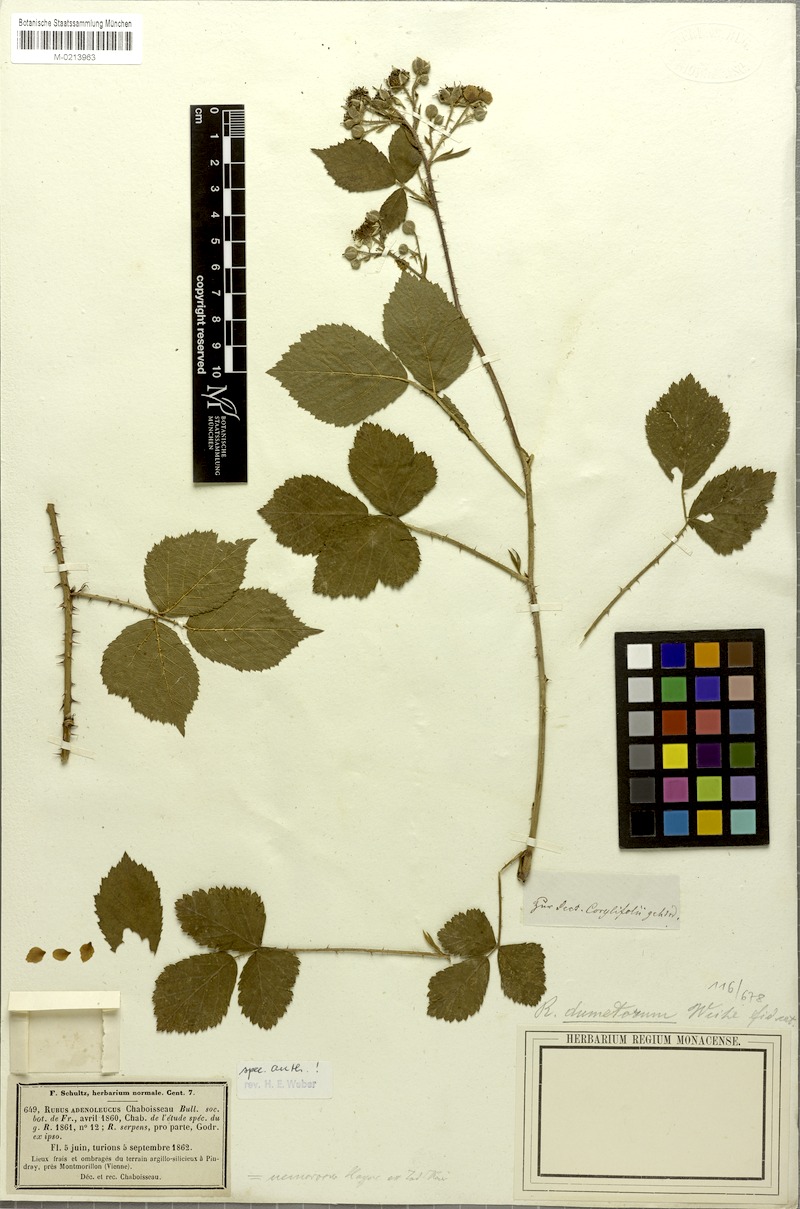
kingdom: Plantae
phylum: Tracheophyta
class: Magnoliopsida
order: Rosales
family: Rosaceae
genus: Rubus
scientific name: Rubus adenoleucus
